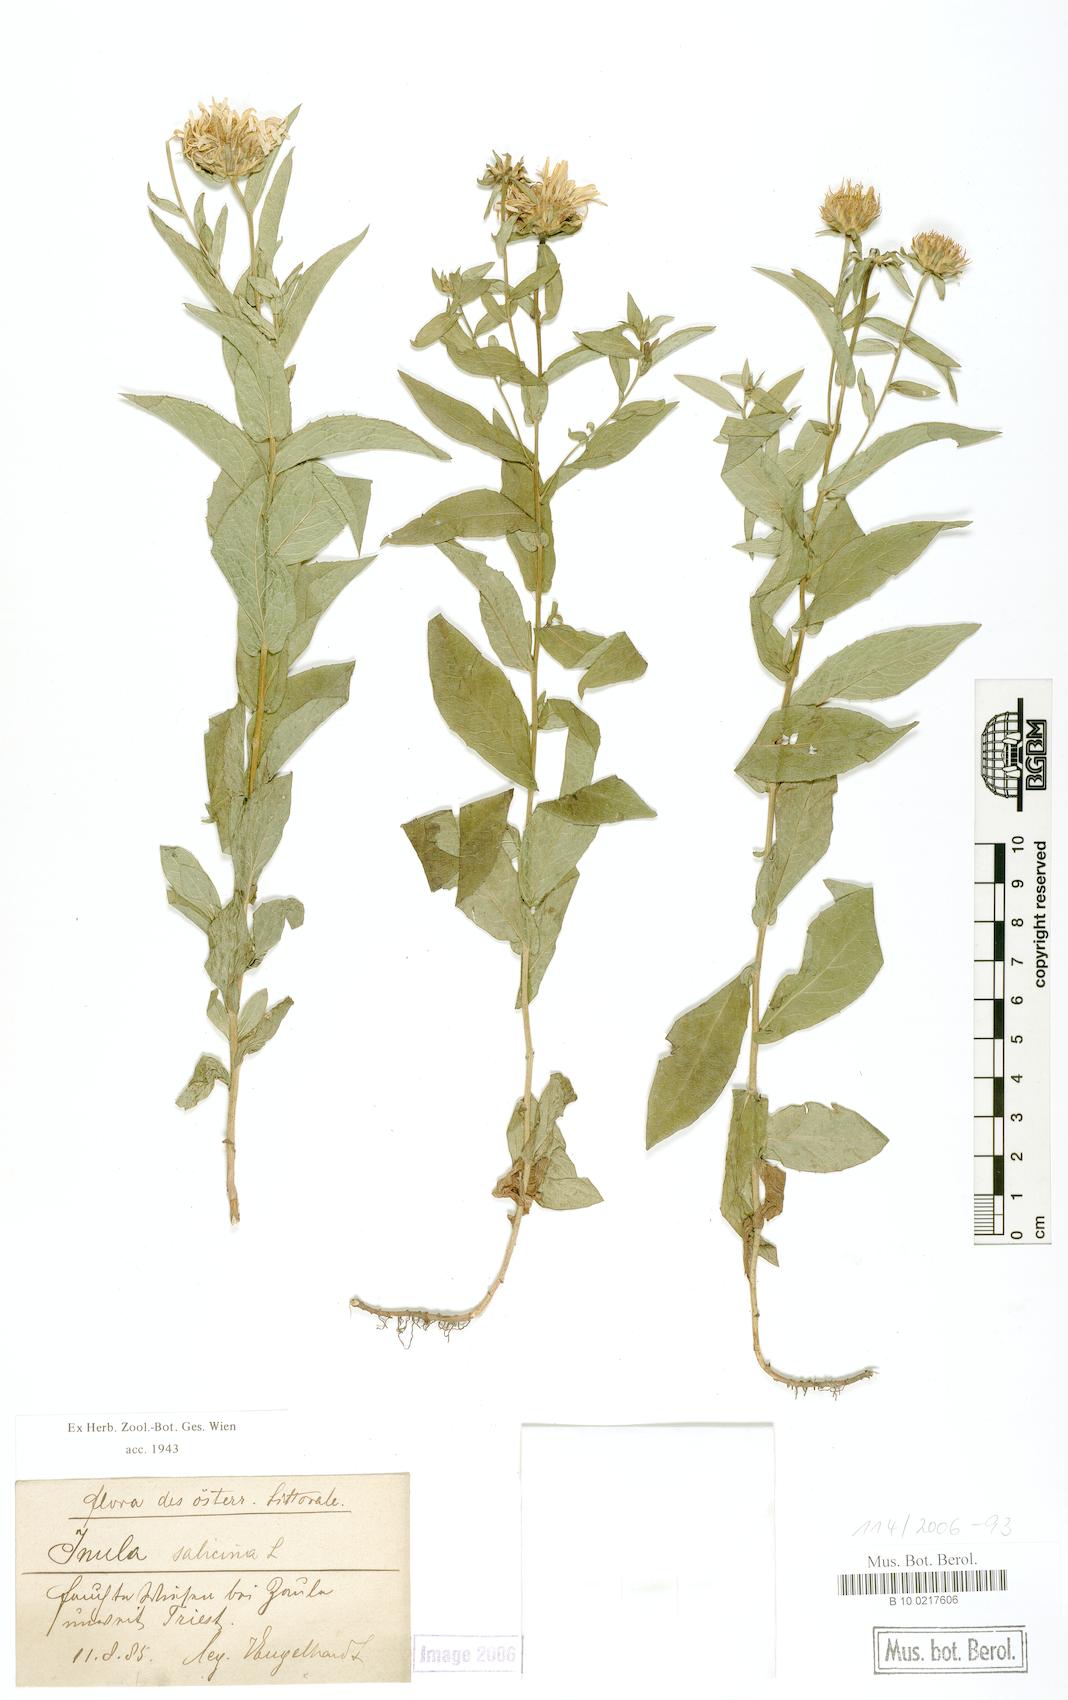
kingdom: Plantae
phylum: Tracheophyta
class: Magnoliopsida
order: Asterales
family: Asteraceae
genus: Pentanema
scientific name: Pentanema salicinum
